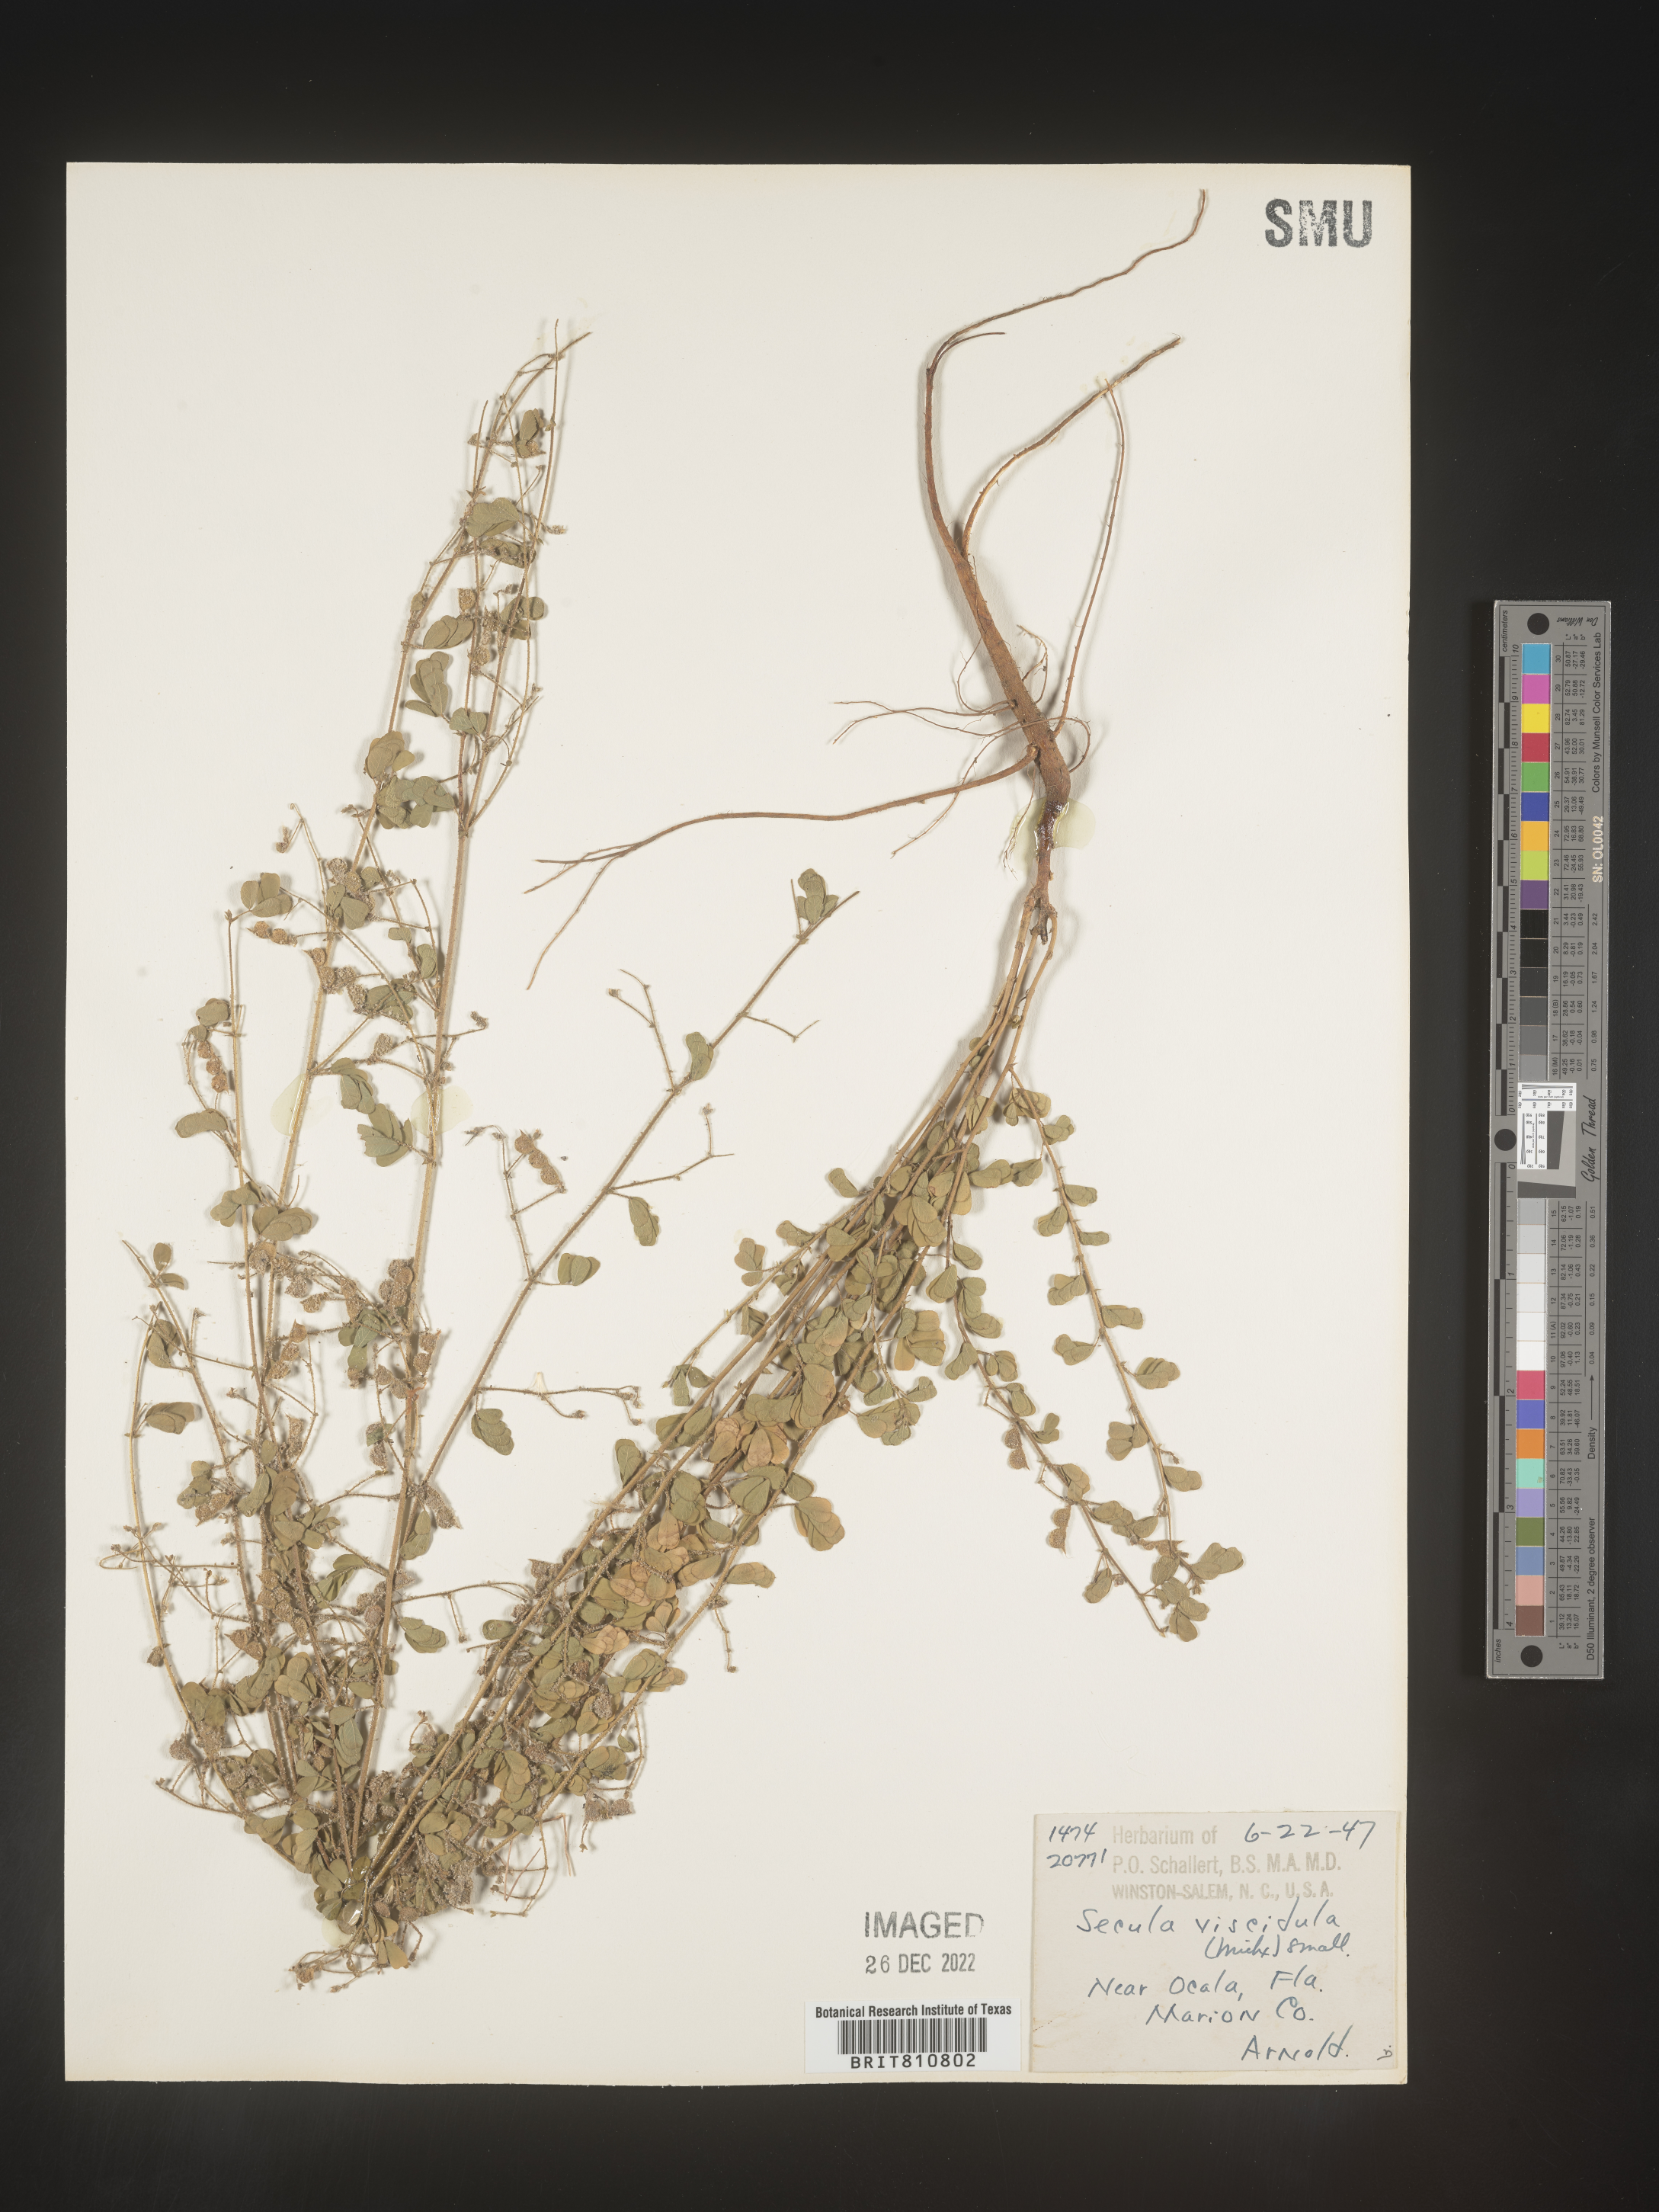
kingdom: Plantae
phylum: Tracheophyta
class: Magnoliopsida
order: Fabales
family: Fabaceae
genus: Aeschynomene
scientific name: Aeschynomene indica
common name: Indian jointvetch
